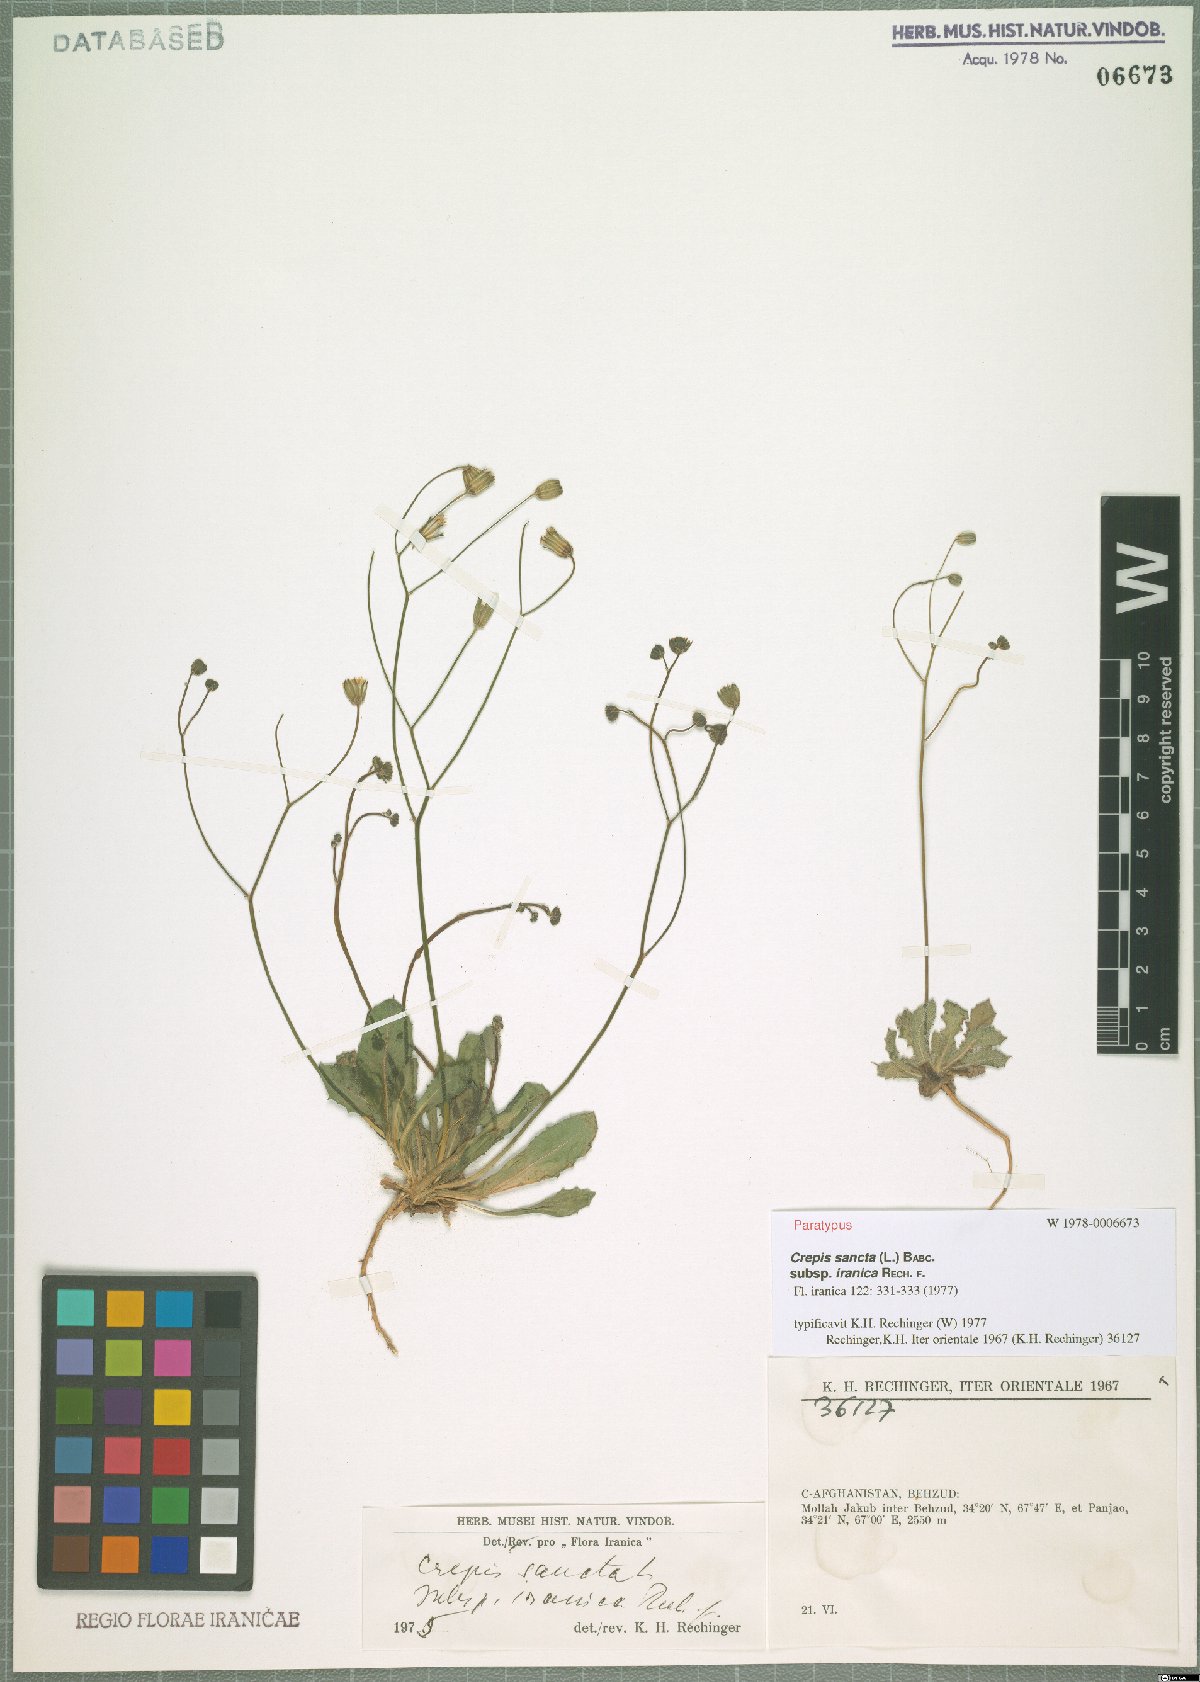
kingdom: Plantae
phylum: Tracheophyta
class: Magnoliopsida
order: Asterales
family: Asteraceae
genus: Crepis
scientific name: Crepis sancta
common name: Hawk's-beard
